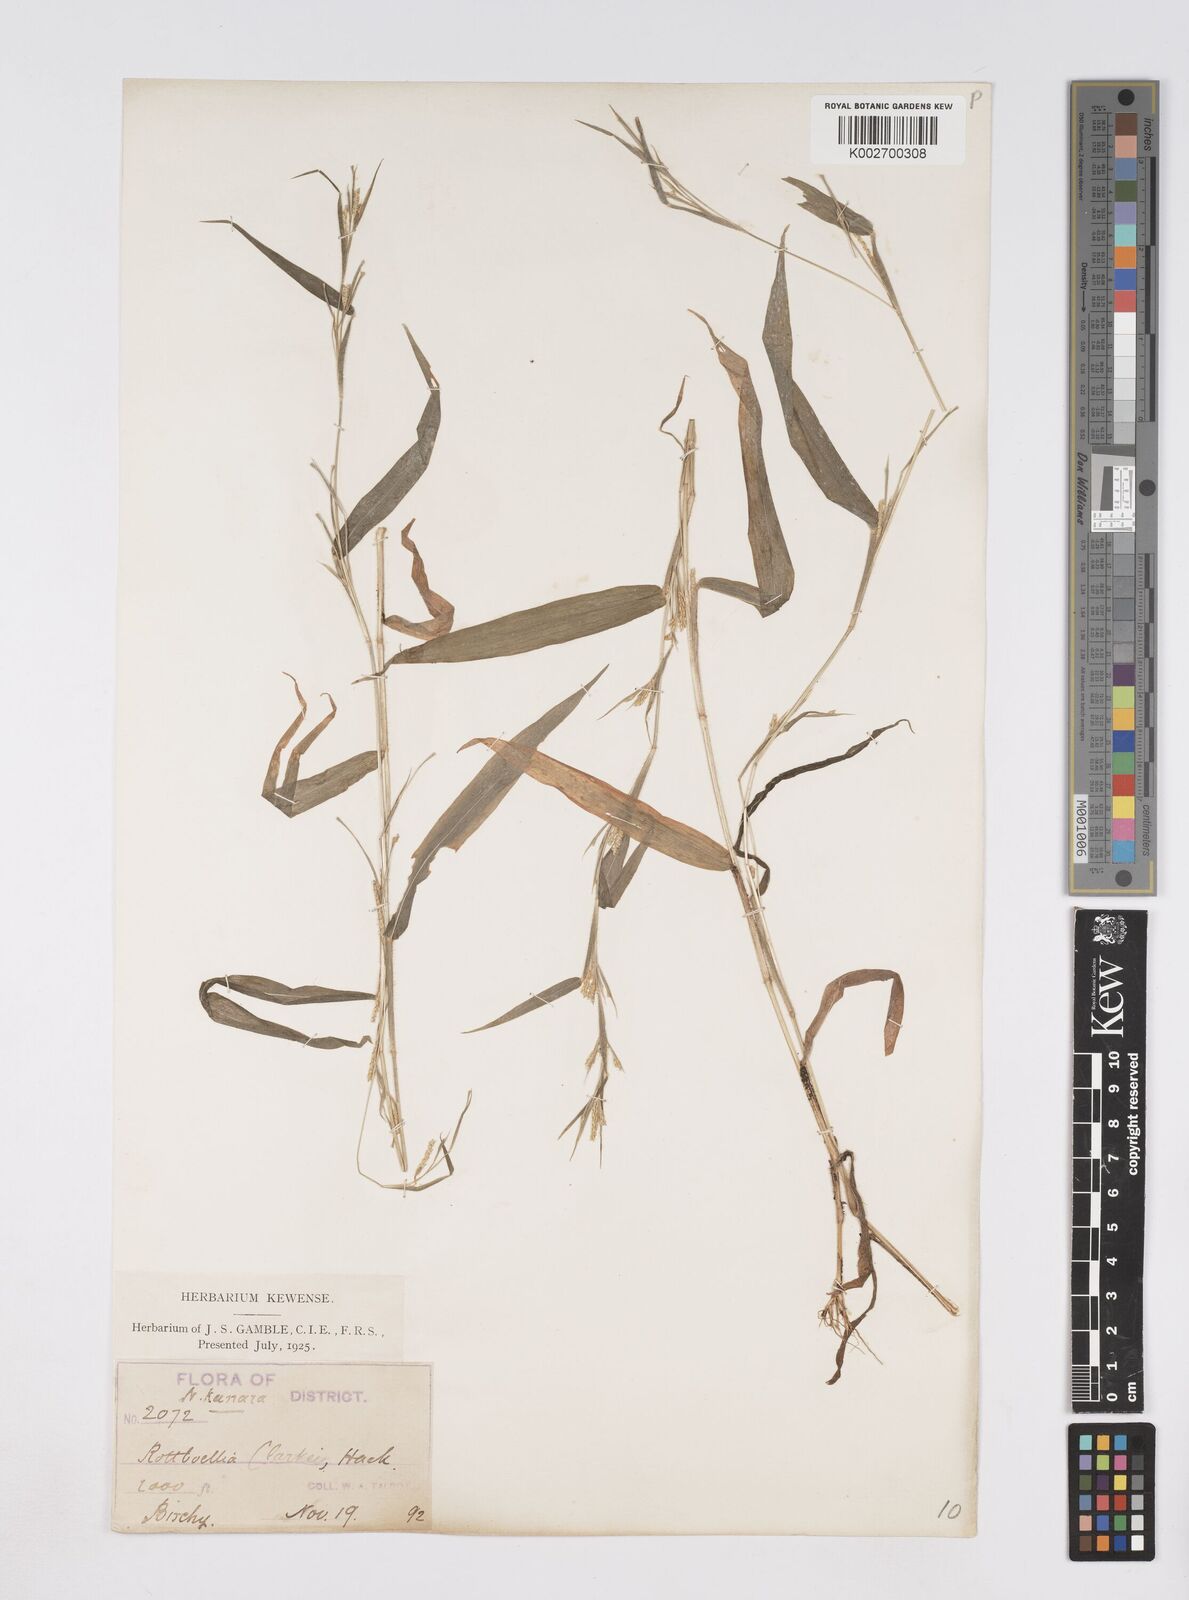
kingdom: Plantae
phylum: Tracheophyta
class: Liliopsida
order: Poales
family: Poaceae
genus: Rottboellia
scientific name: Rottboellia clarkei
